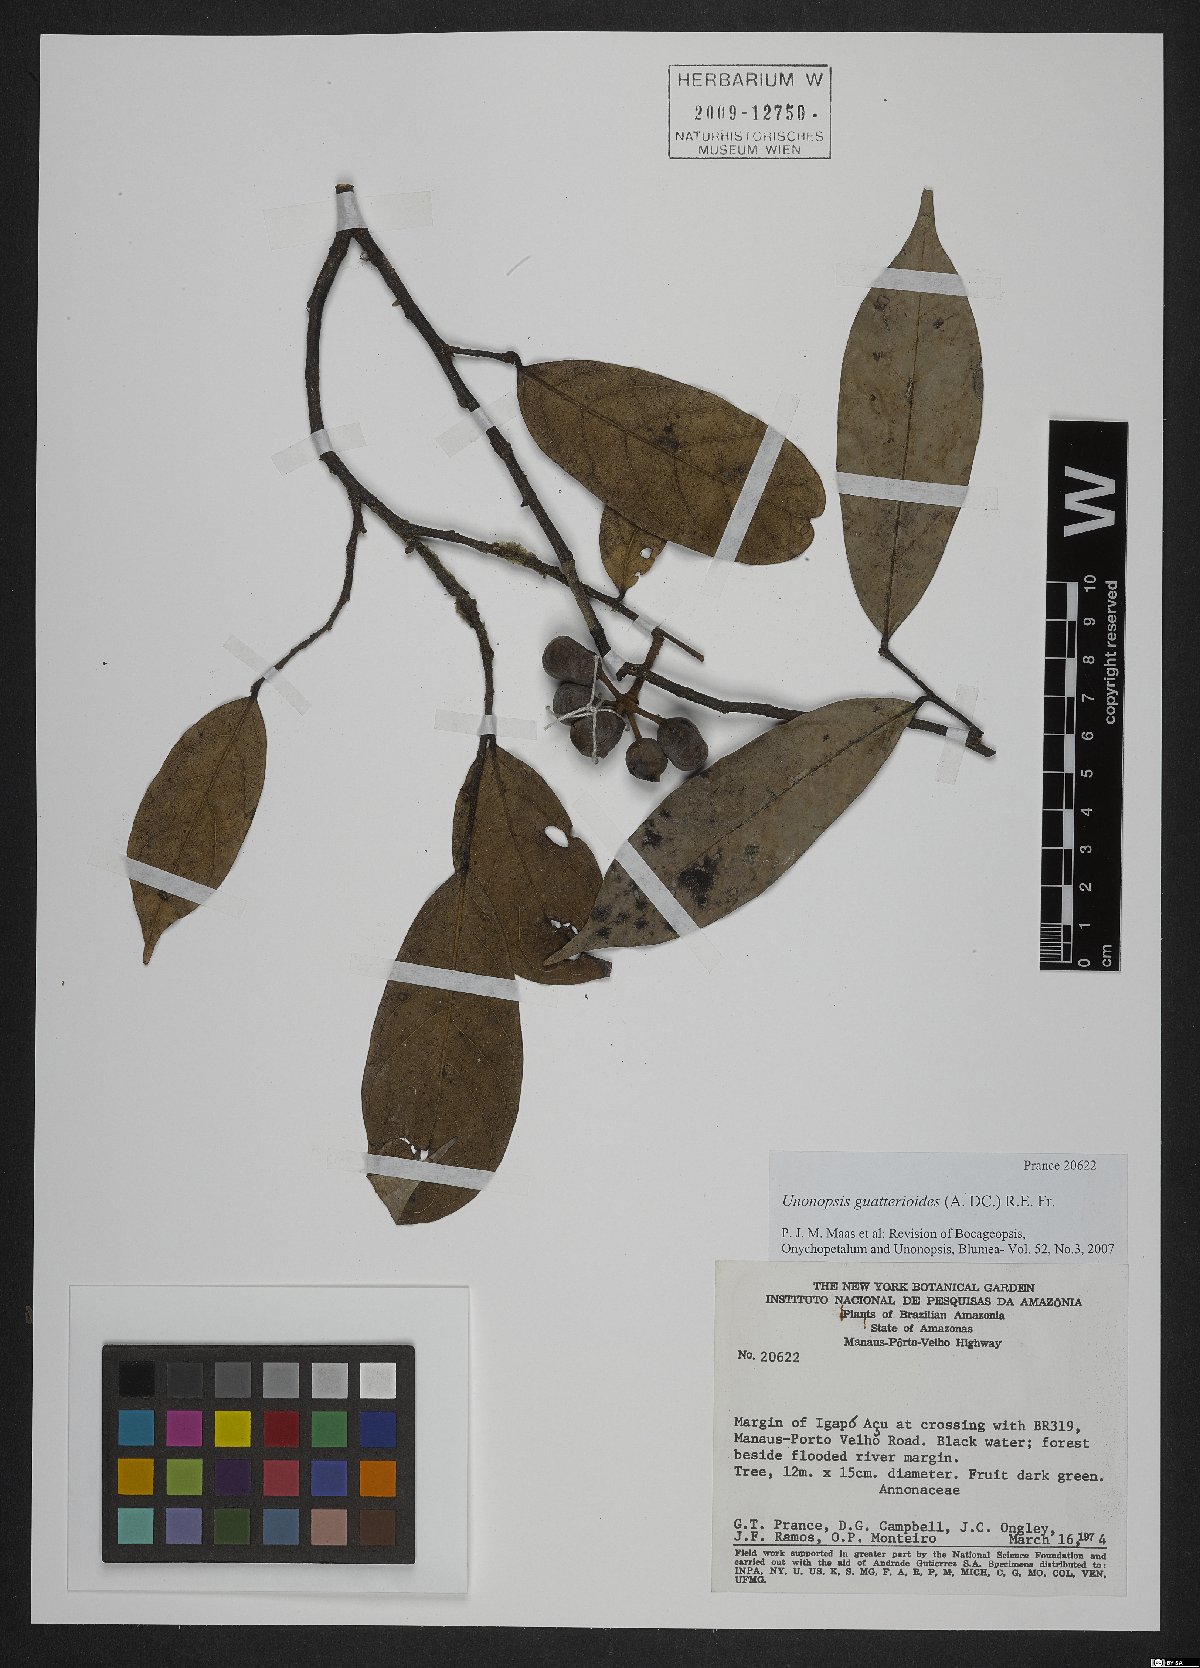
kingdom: Plantae
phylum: Tracheophyta
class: Magnoliopsida
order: Magnoliales
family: Annonaceae
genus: Unonopsis
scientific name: Unonopsis guatterioides
